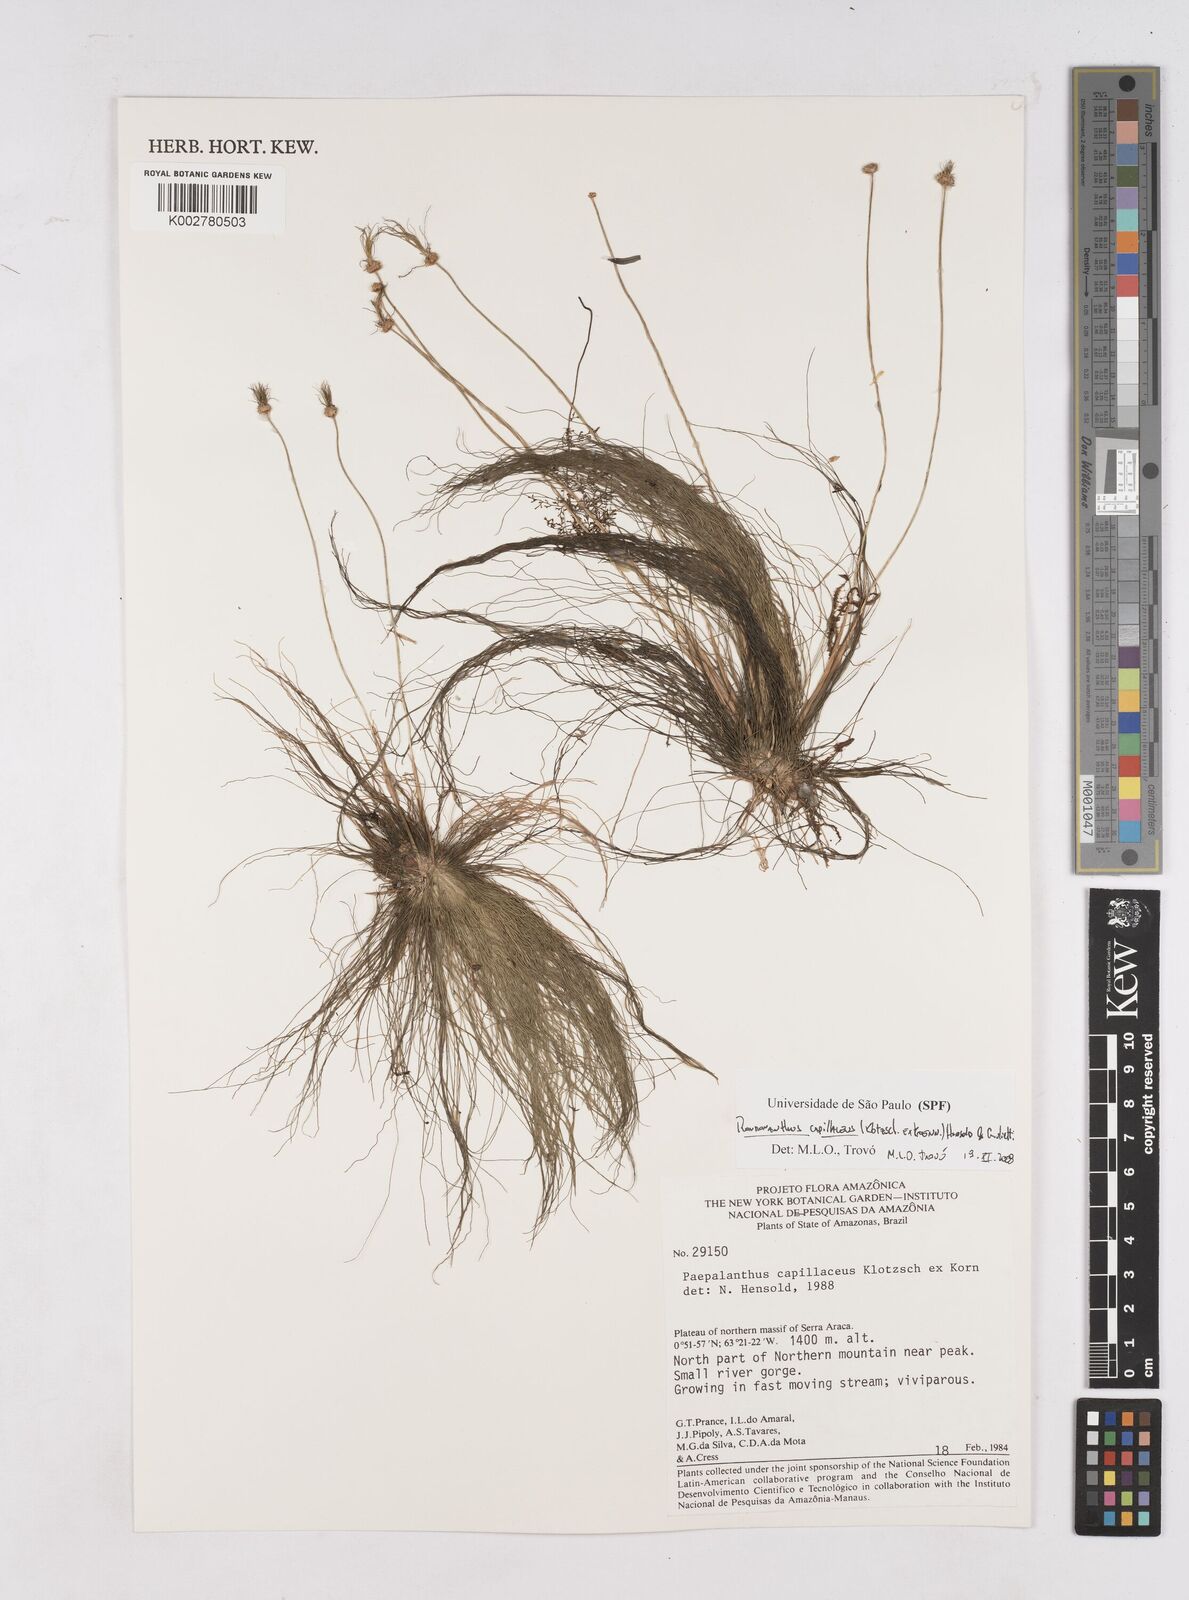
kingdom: Plantae
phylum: Tracheophyta
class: Liliopsida
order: Poales
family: Eriocaulaceae
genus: Rondonanthus
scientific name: Rondonanthus capillaceus
